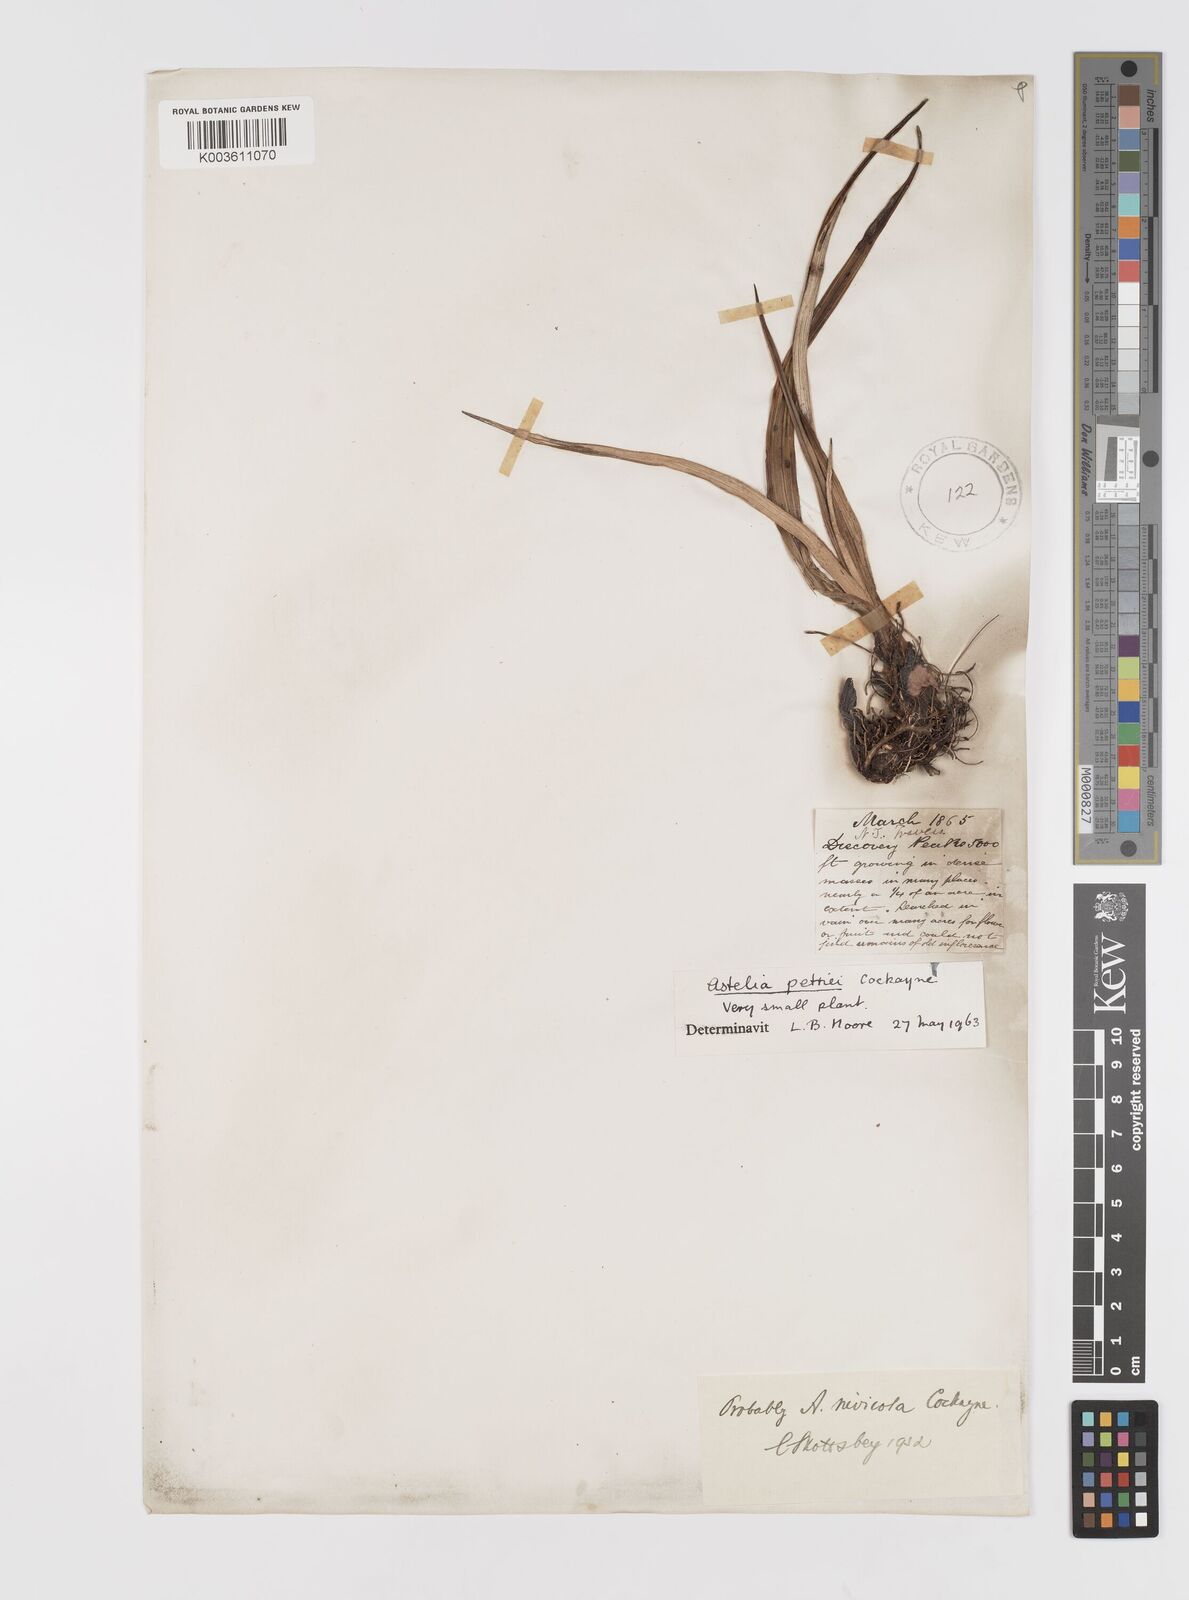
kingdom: Plantae
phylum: Tracheophyta
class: Liliopsida
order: Asparagales
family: Asteliaceae
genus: Astelia
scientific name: Astelia petriei
